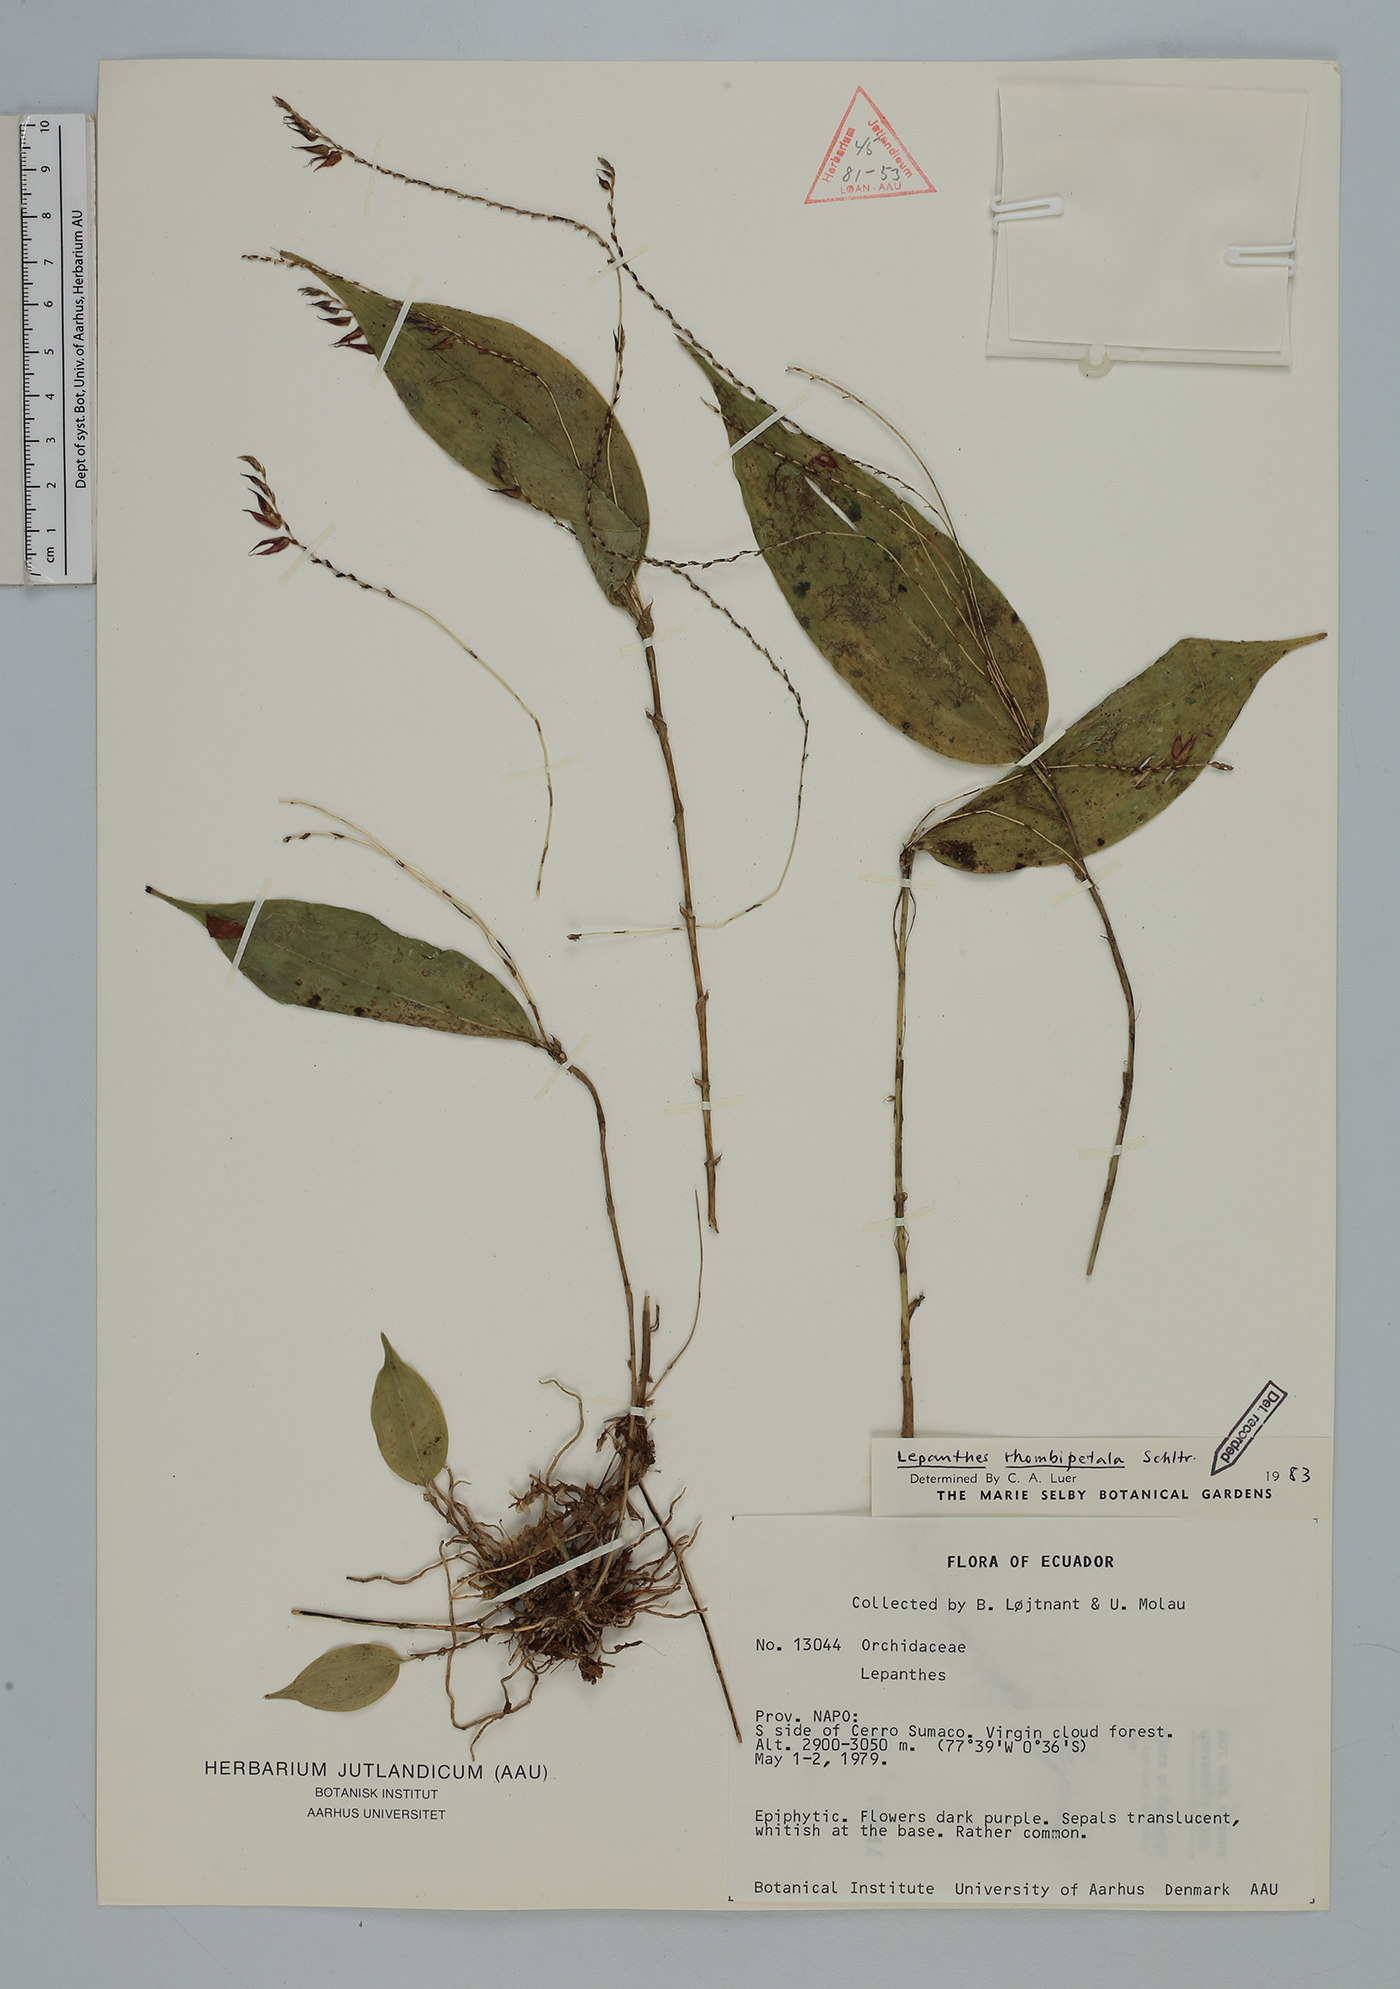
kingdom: Plantae
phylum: Tracheophyta
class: Liliopsida
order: Asparagales
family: Orchidaceae
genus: Lepanthes
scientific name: Lepanthes rhombipetala
